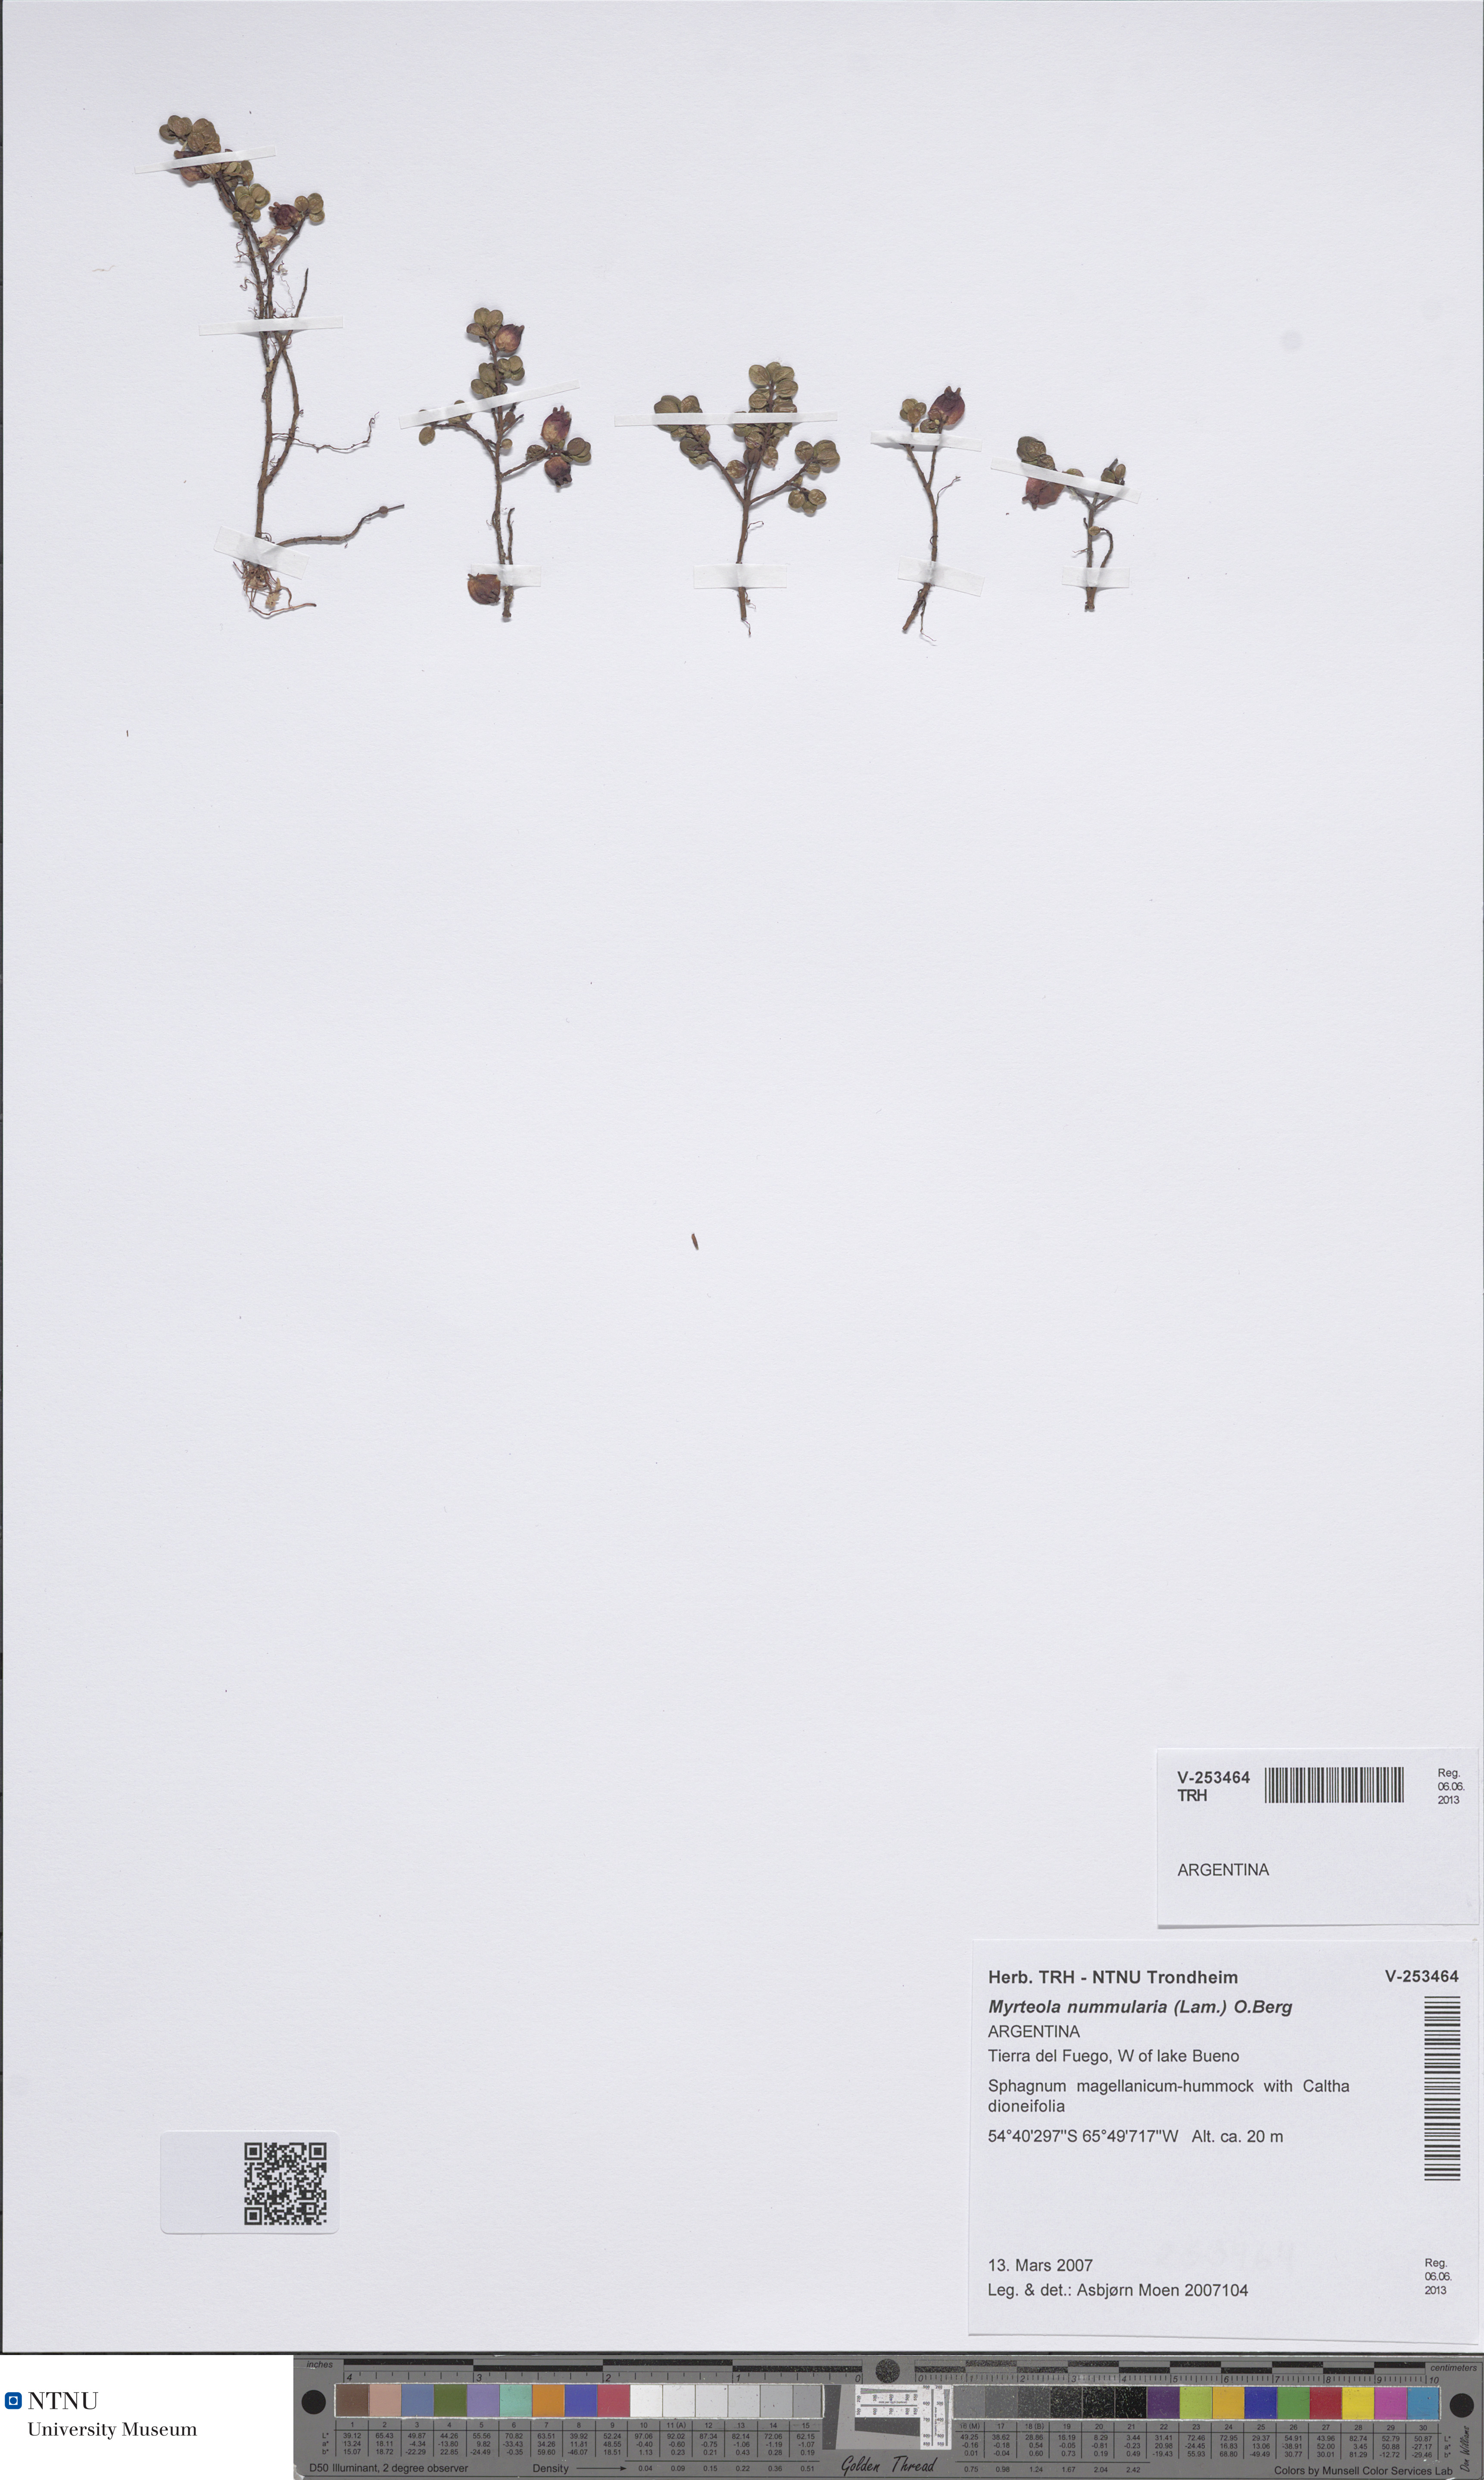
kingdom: Plantae
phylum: Tracheophyta
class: Magnoliopsida
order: Myrtales
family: Myrtaceae
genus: Myrteola
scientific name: Myrteola nummularia
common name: Cranberry-myrtle
